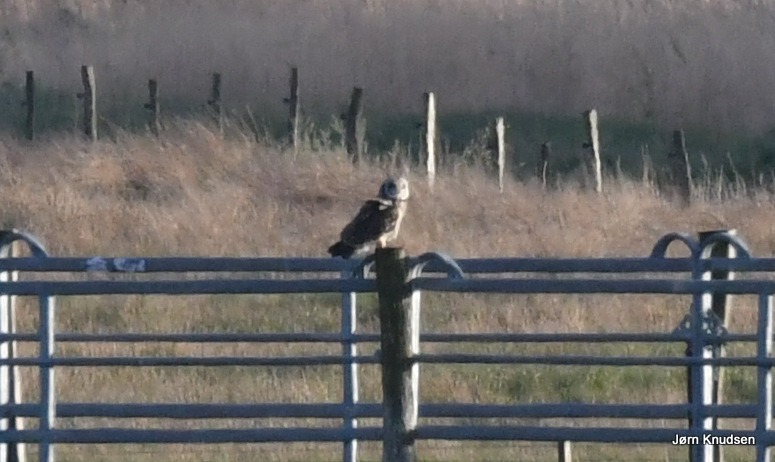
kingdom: Animalia
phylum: Chordata
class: Aves
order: Strigiformes
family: Strigidae
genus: Asio
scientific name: Asio flammeus
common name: Mosehornugle
